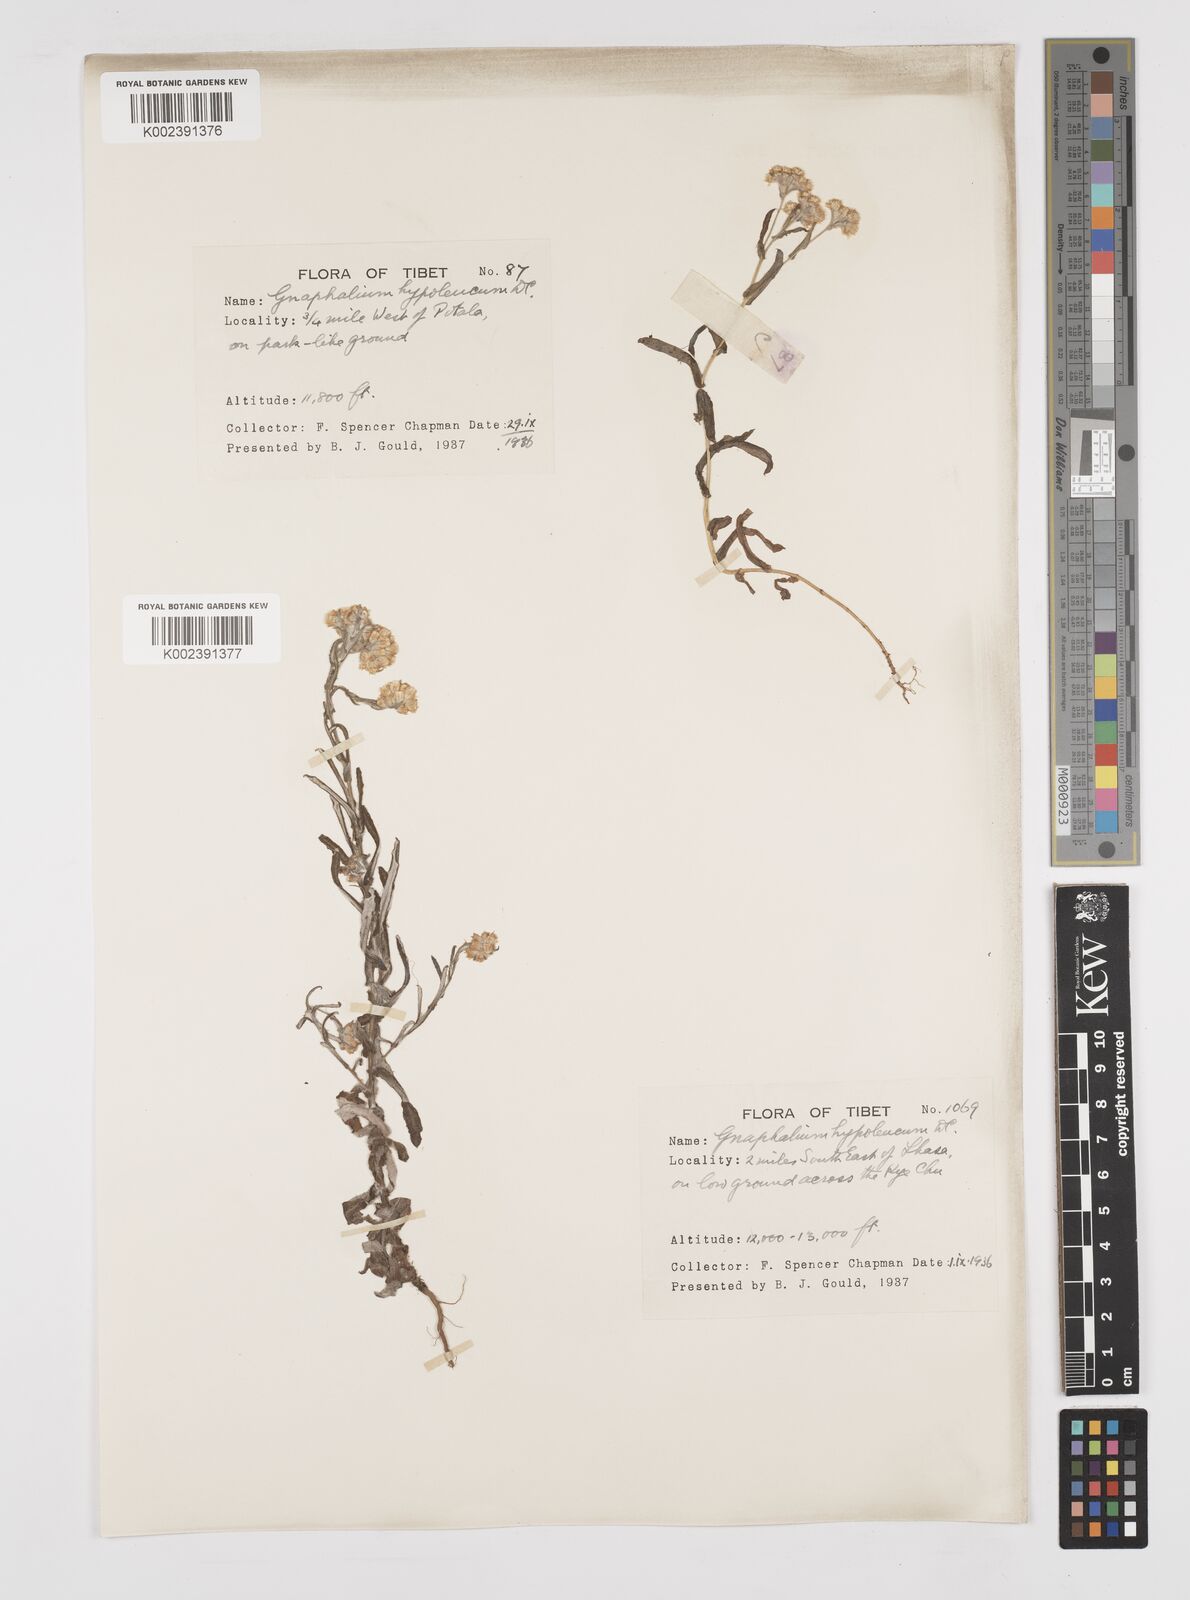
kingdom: Plantae
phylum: Tracheophyta
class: Magnoliopsida
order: Asterales
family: Asteraceae
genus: Pseudognaphalium
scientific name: Pseudognaphalium hypoleucum
